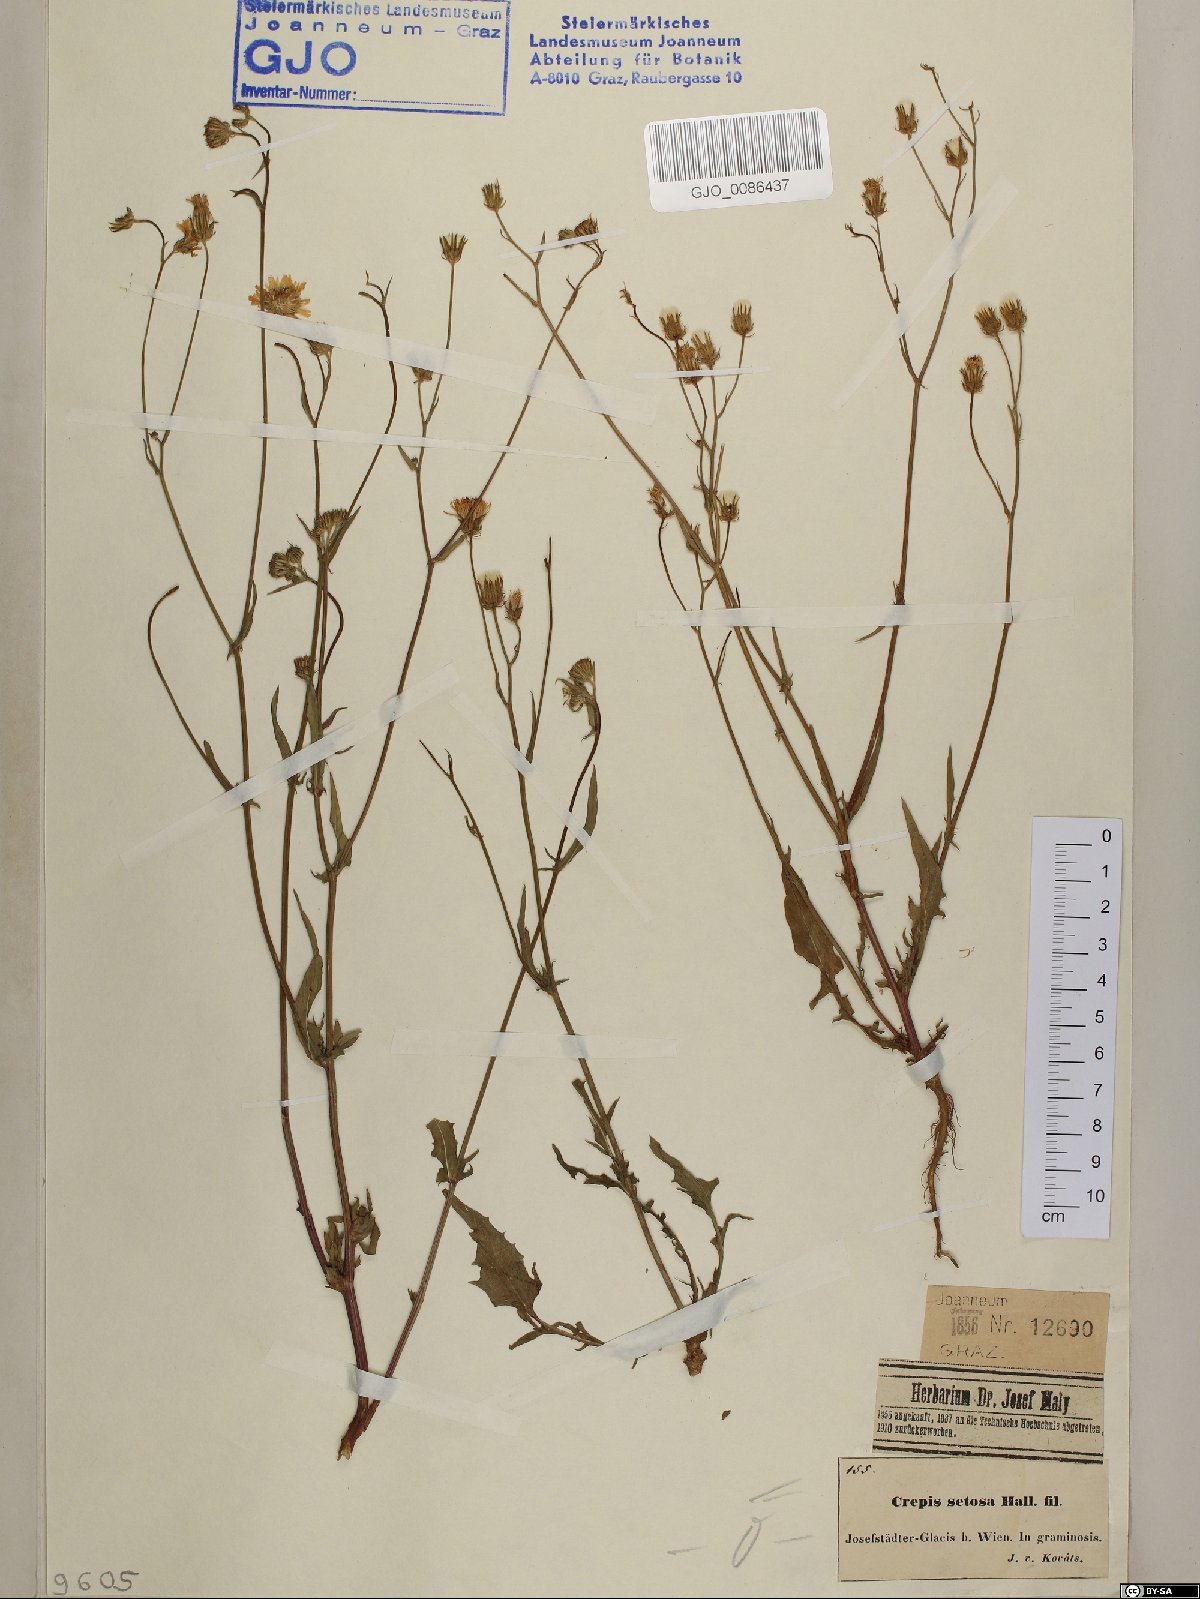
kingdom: Fungi
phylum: Basidiomycota
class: Agaricomycetes
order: Agaricales
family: Porotheleaceae
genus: Porotheleum
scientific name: Porotheleum fimbriatum
